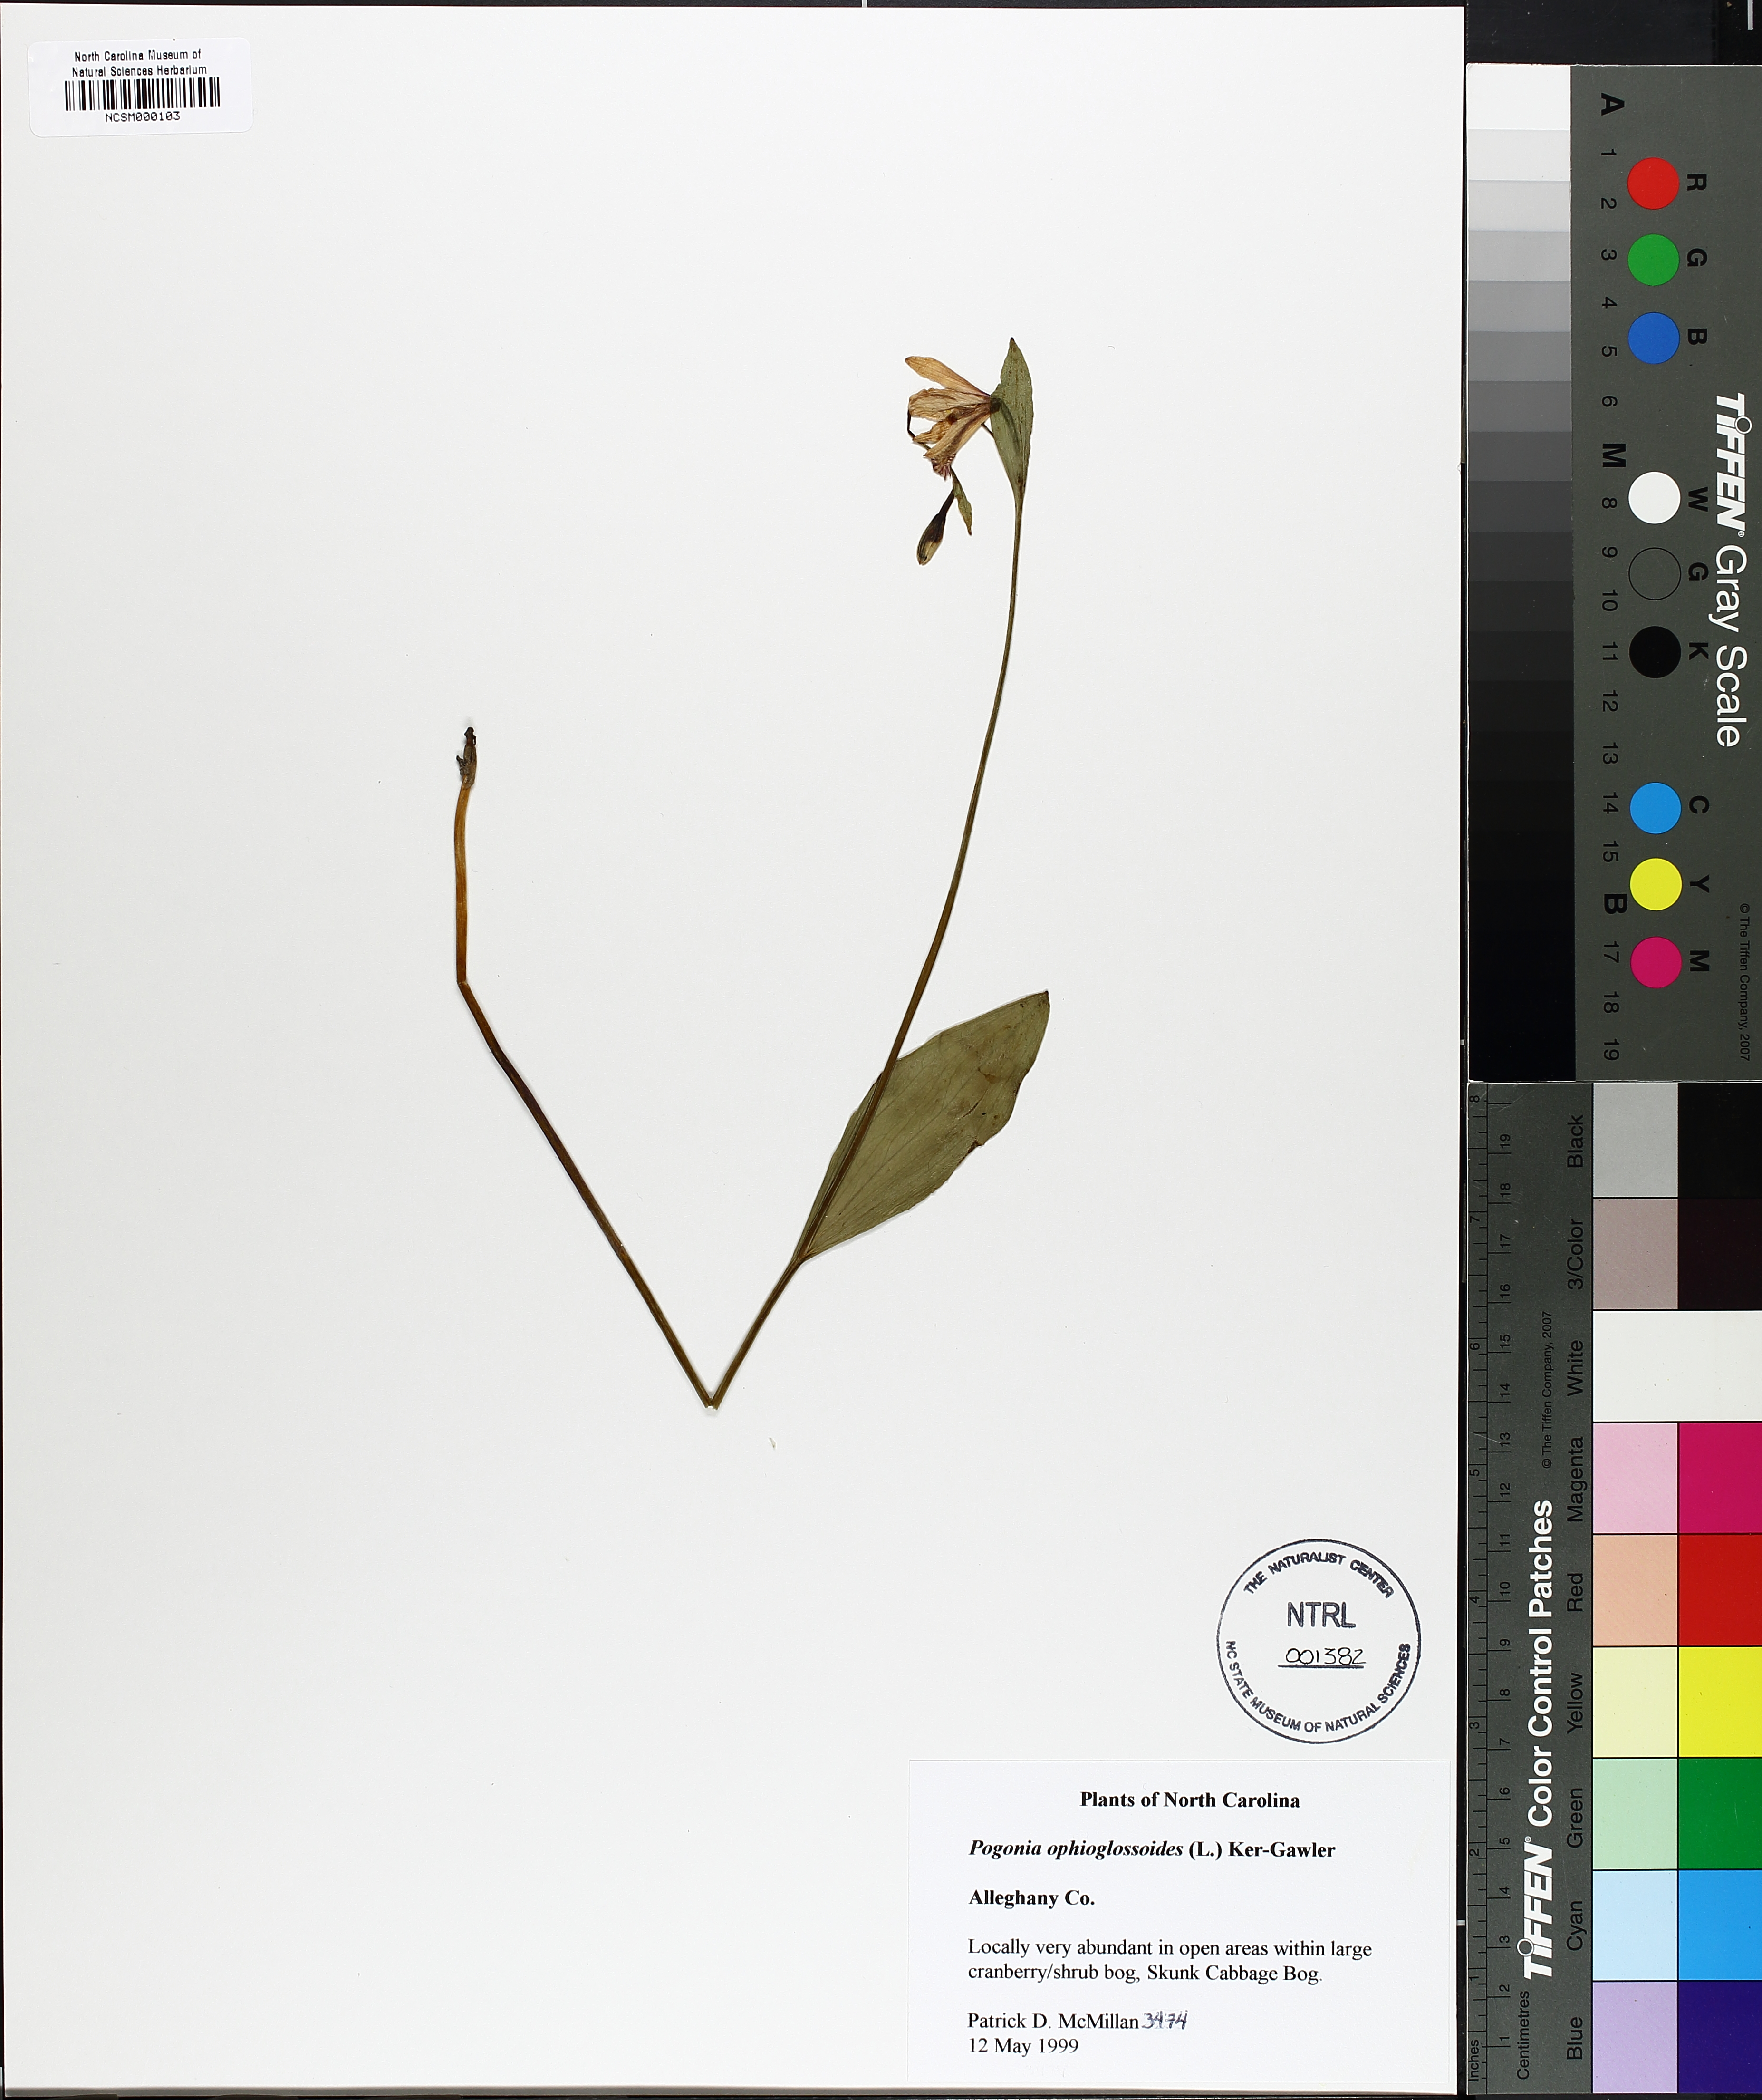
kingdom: Plantae
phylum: Tracheophyta
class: Liliopsida
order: Asparagales
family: Orchidaceae
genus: Pogonia
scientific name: Pogonia ophioglossoides
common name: Rose pogonia
